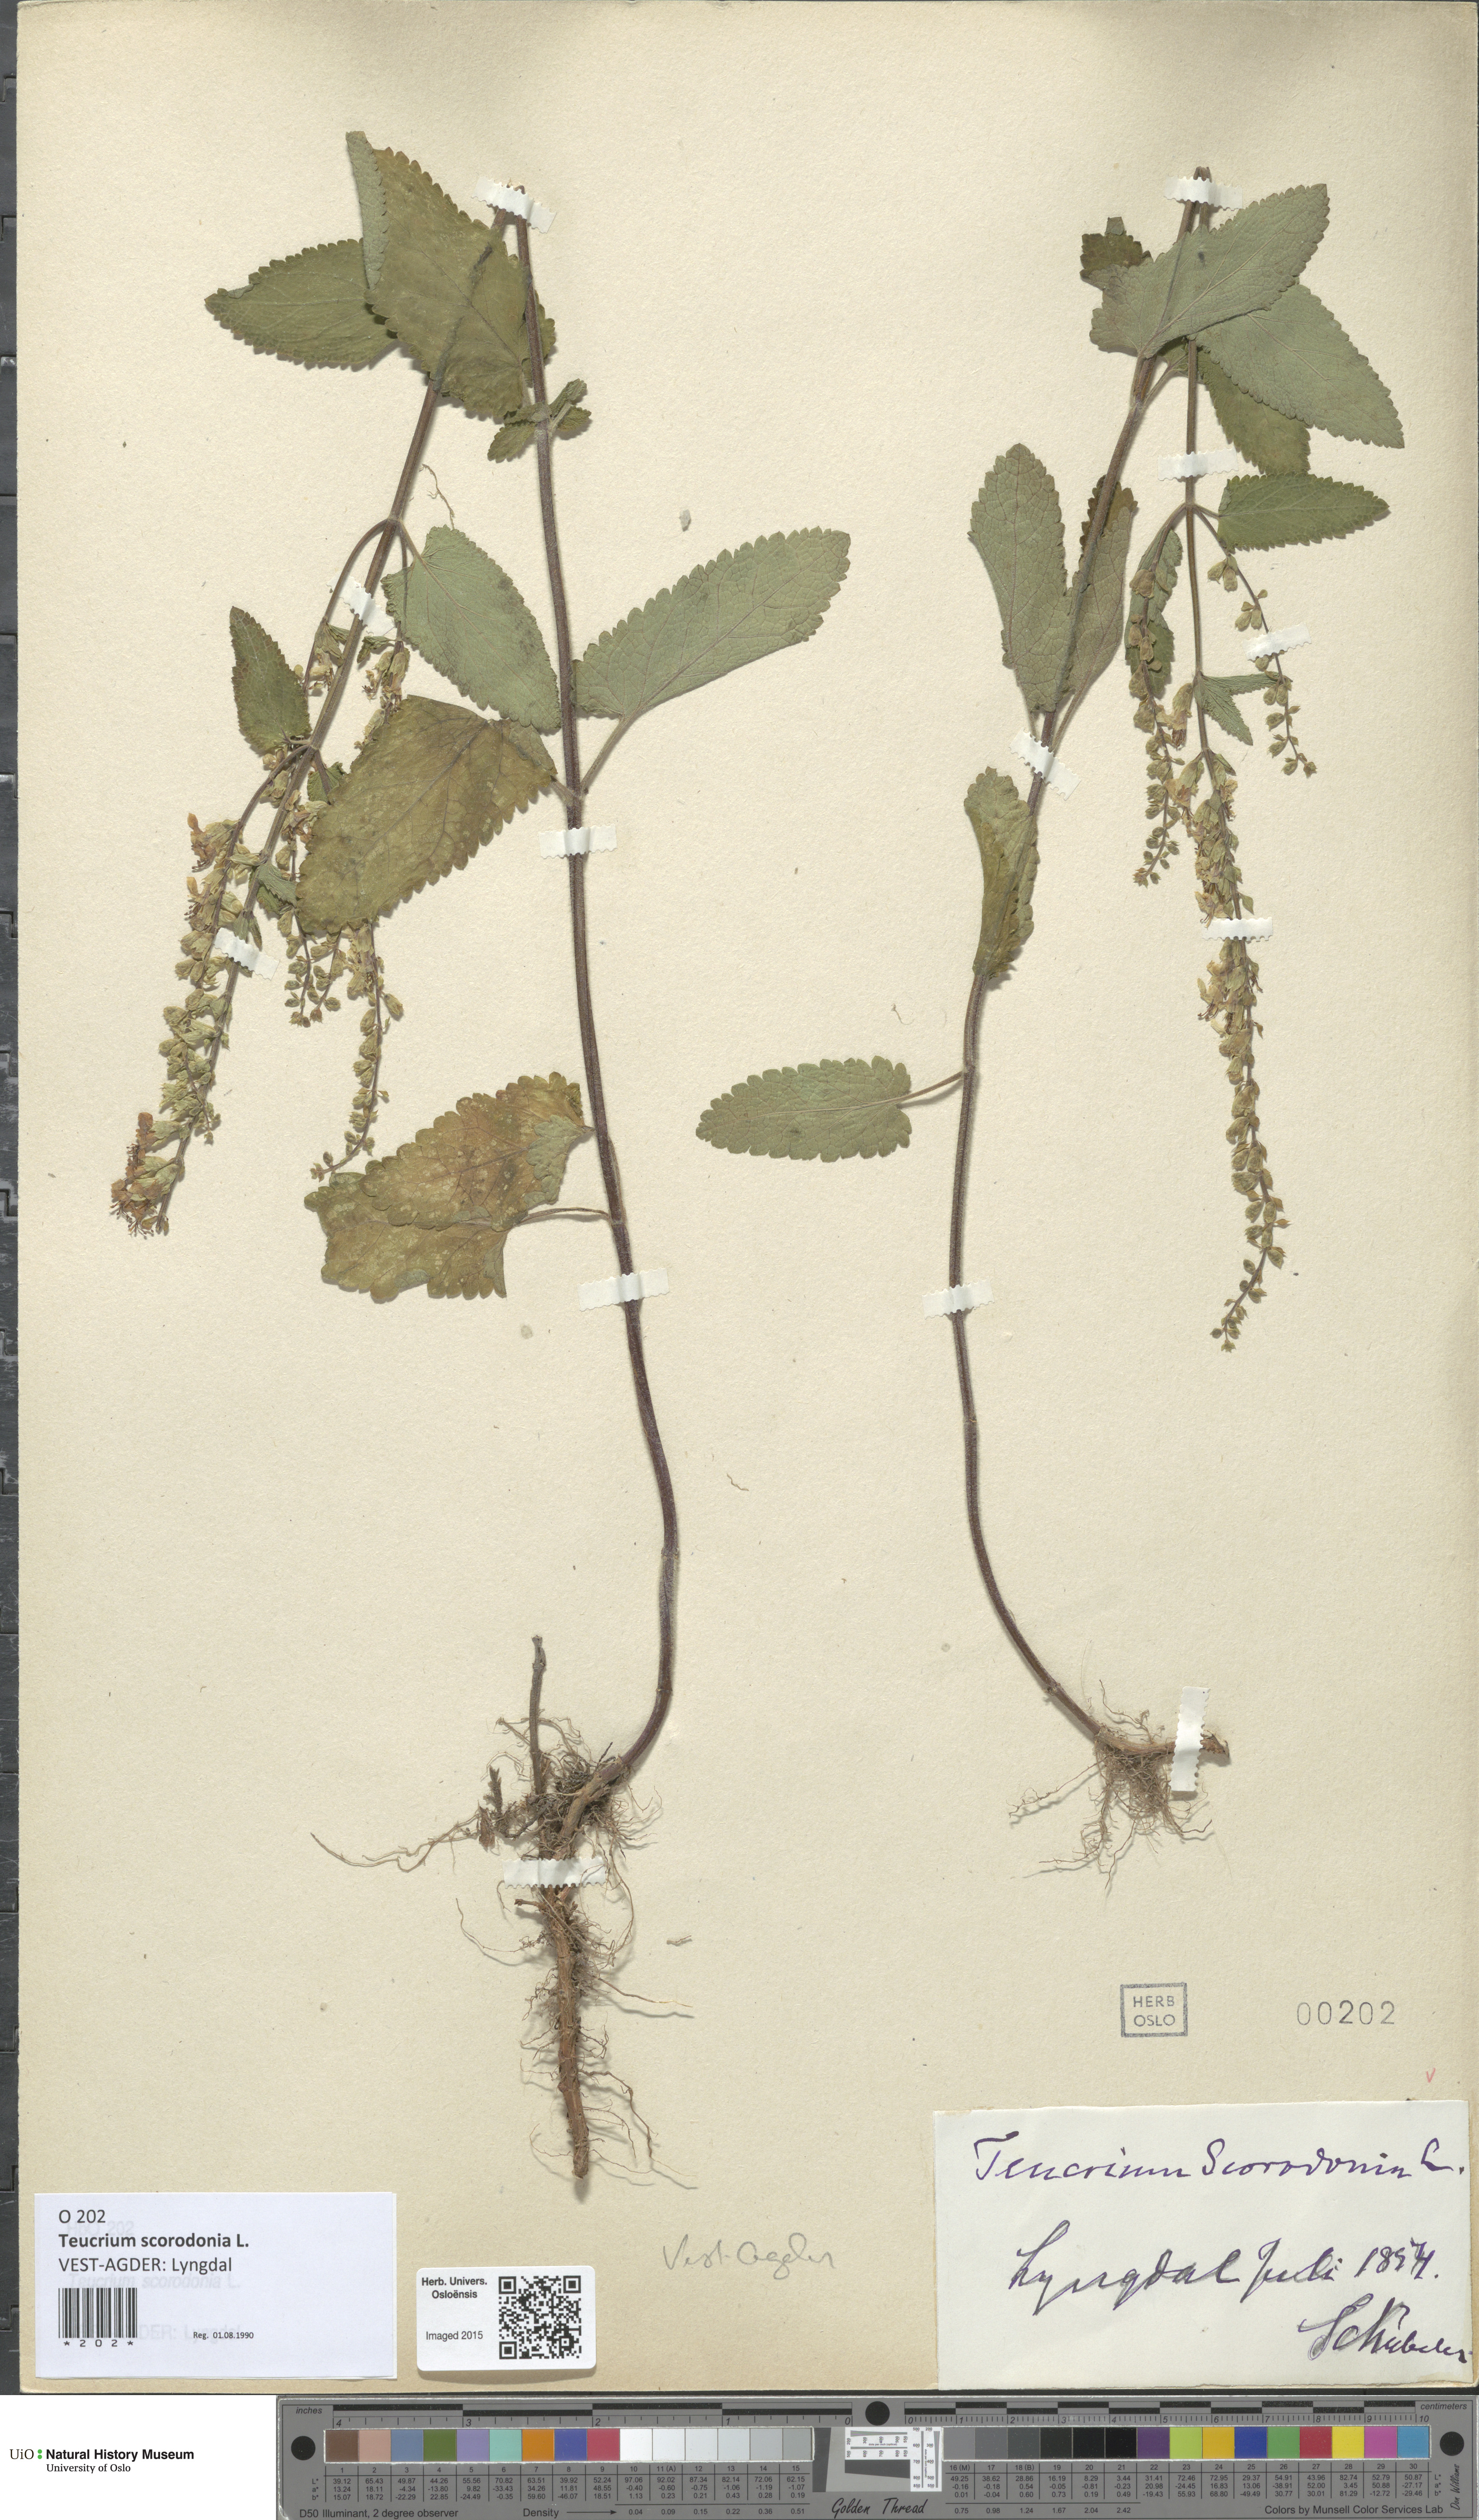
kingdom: Plantae
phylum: Tracheophyta
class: Magnoliopsida
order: Lamiales
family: Lamiaceae
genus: Teucrium
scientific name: Teucrium scorodonia
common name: Woodland germander
